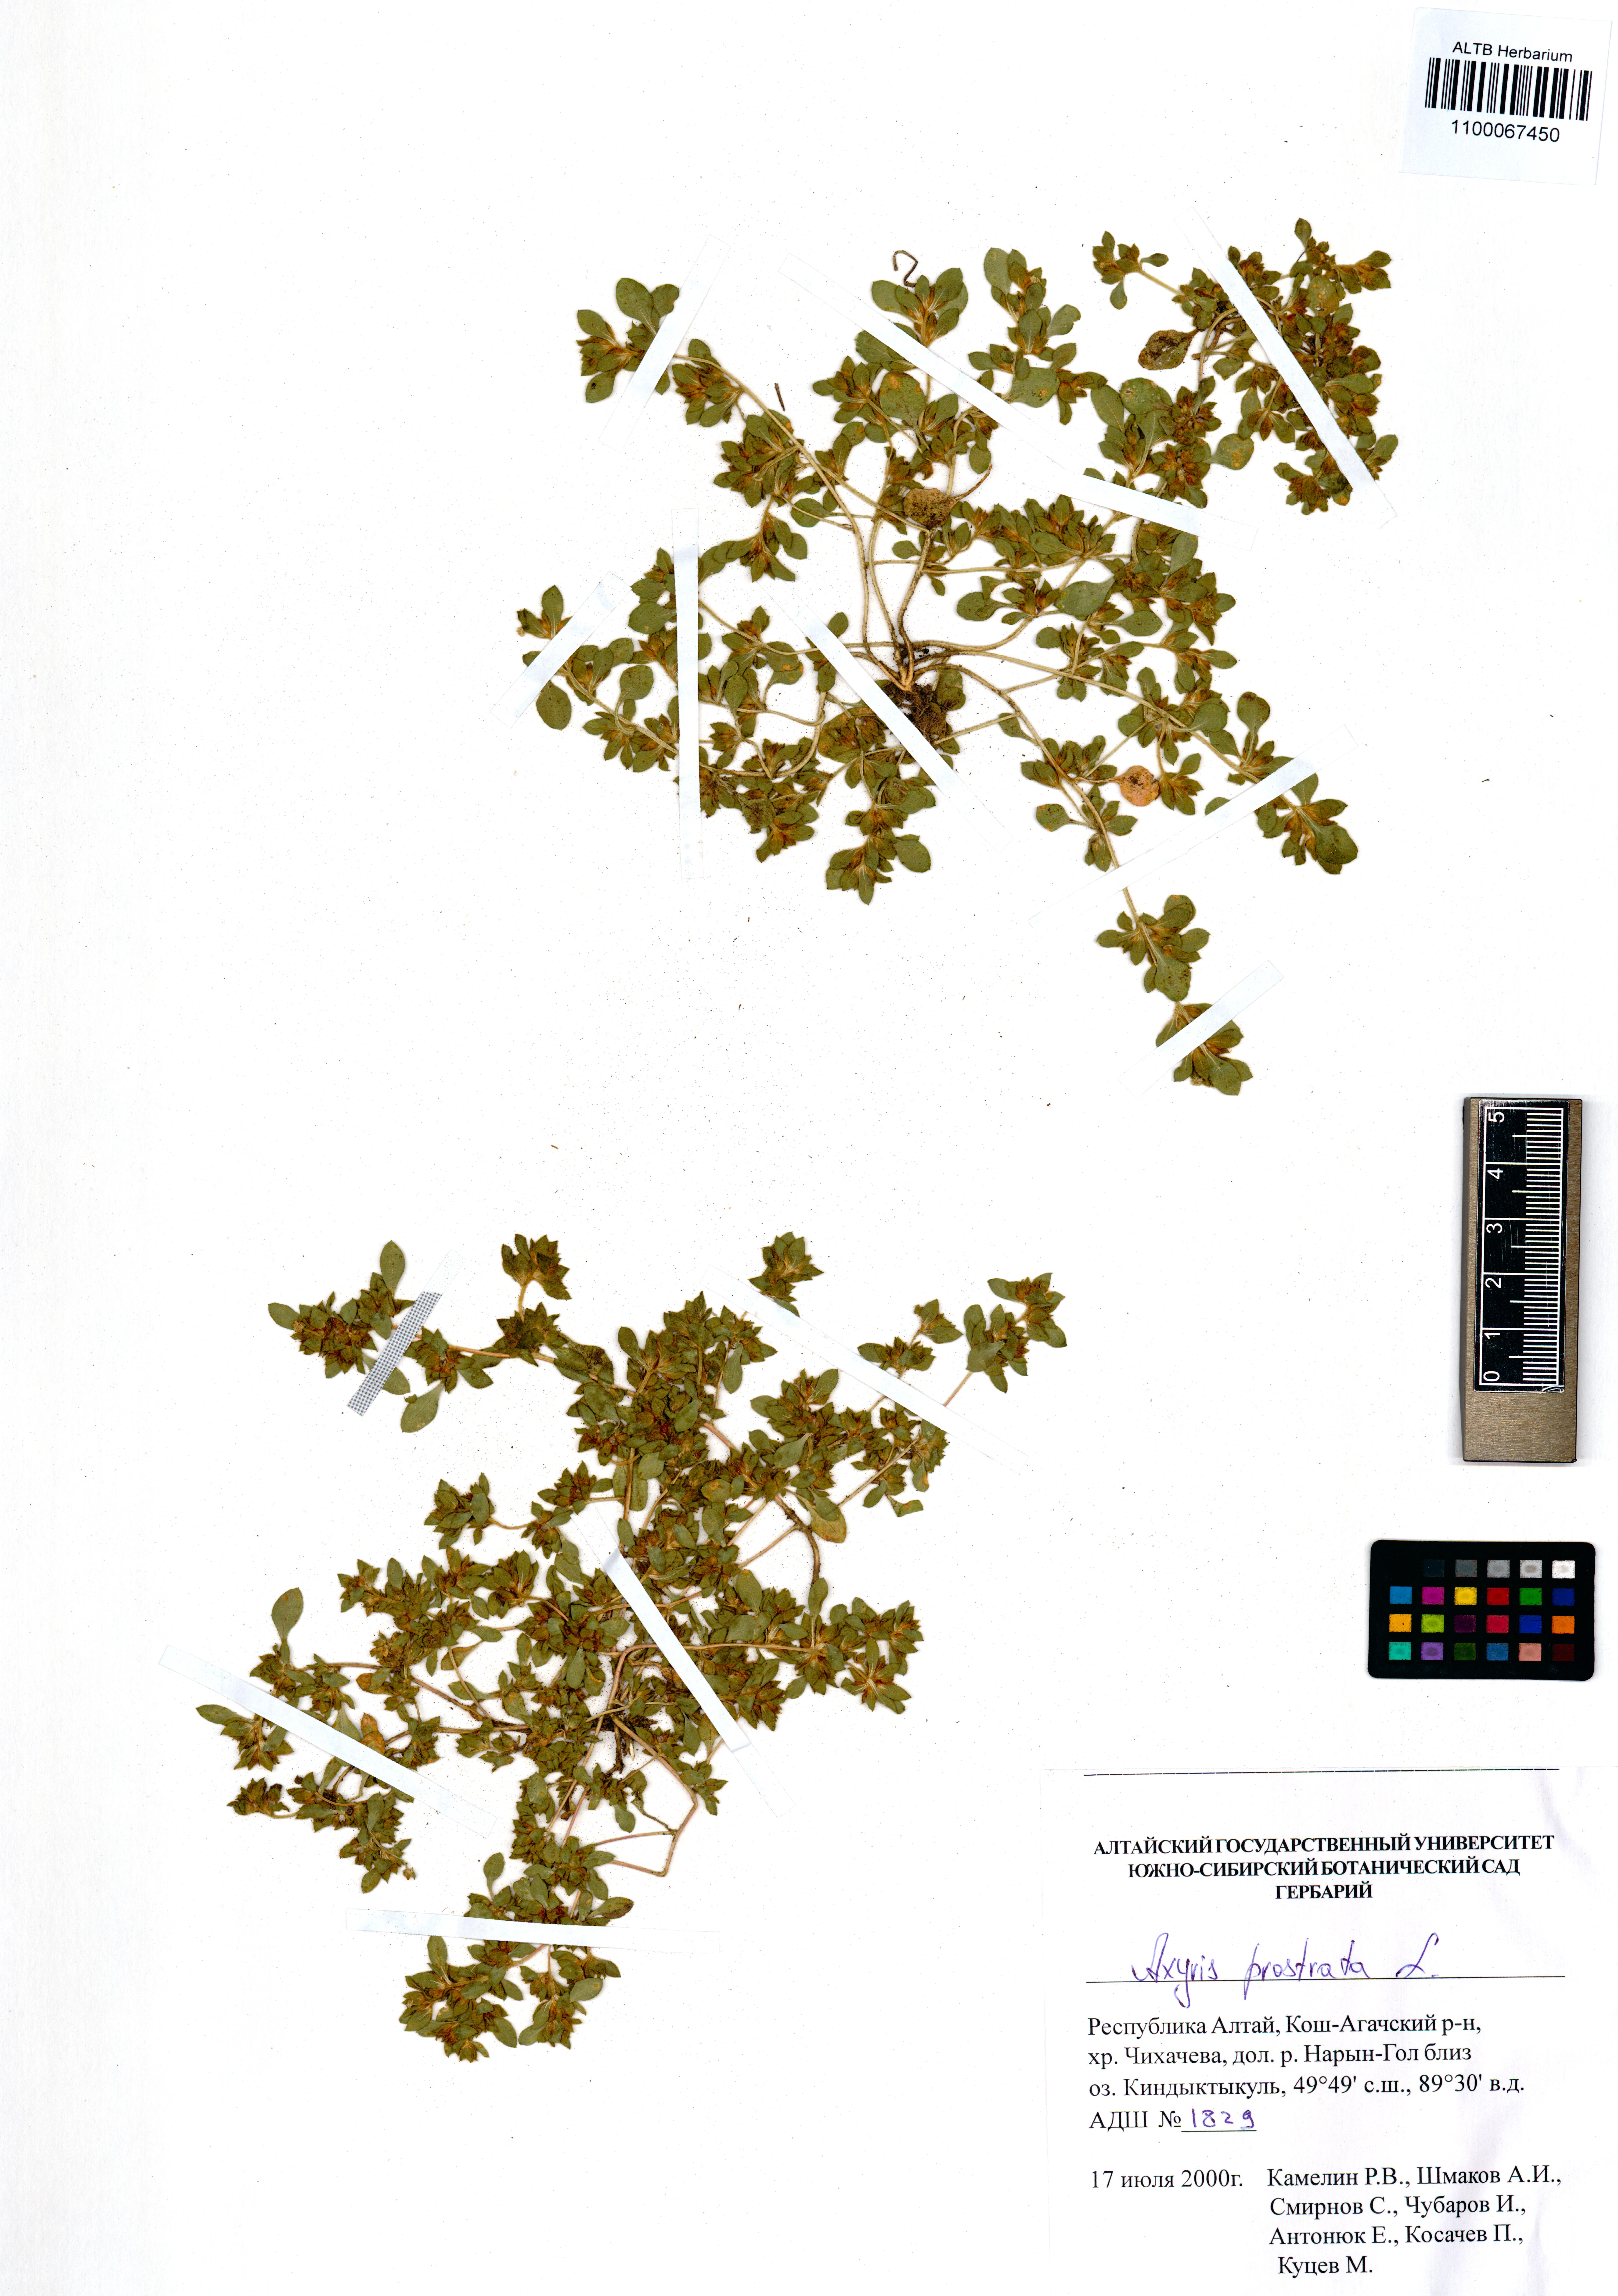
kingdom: Plantae
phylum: Tracheophyta
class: Magnoliopsida
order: Caryophyllales
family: Amaranthaceae
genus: Axyris
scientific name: Axyris prostrata
